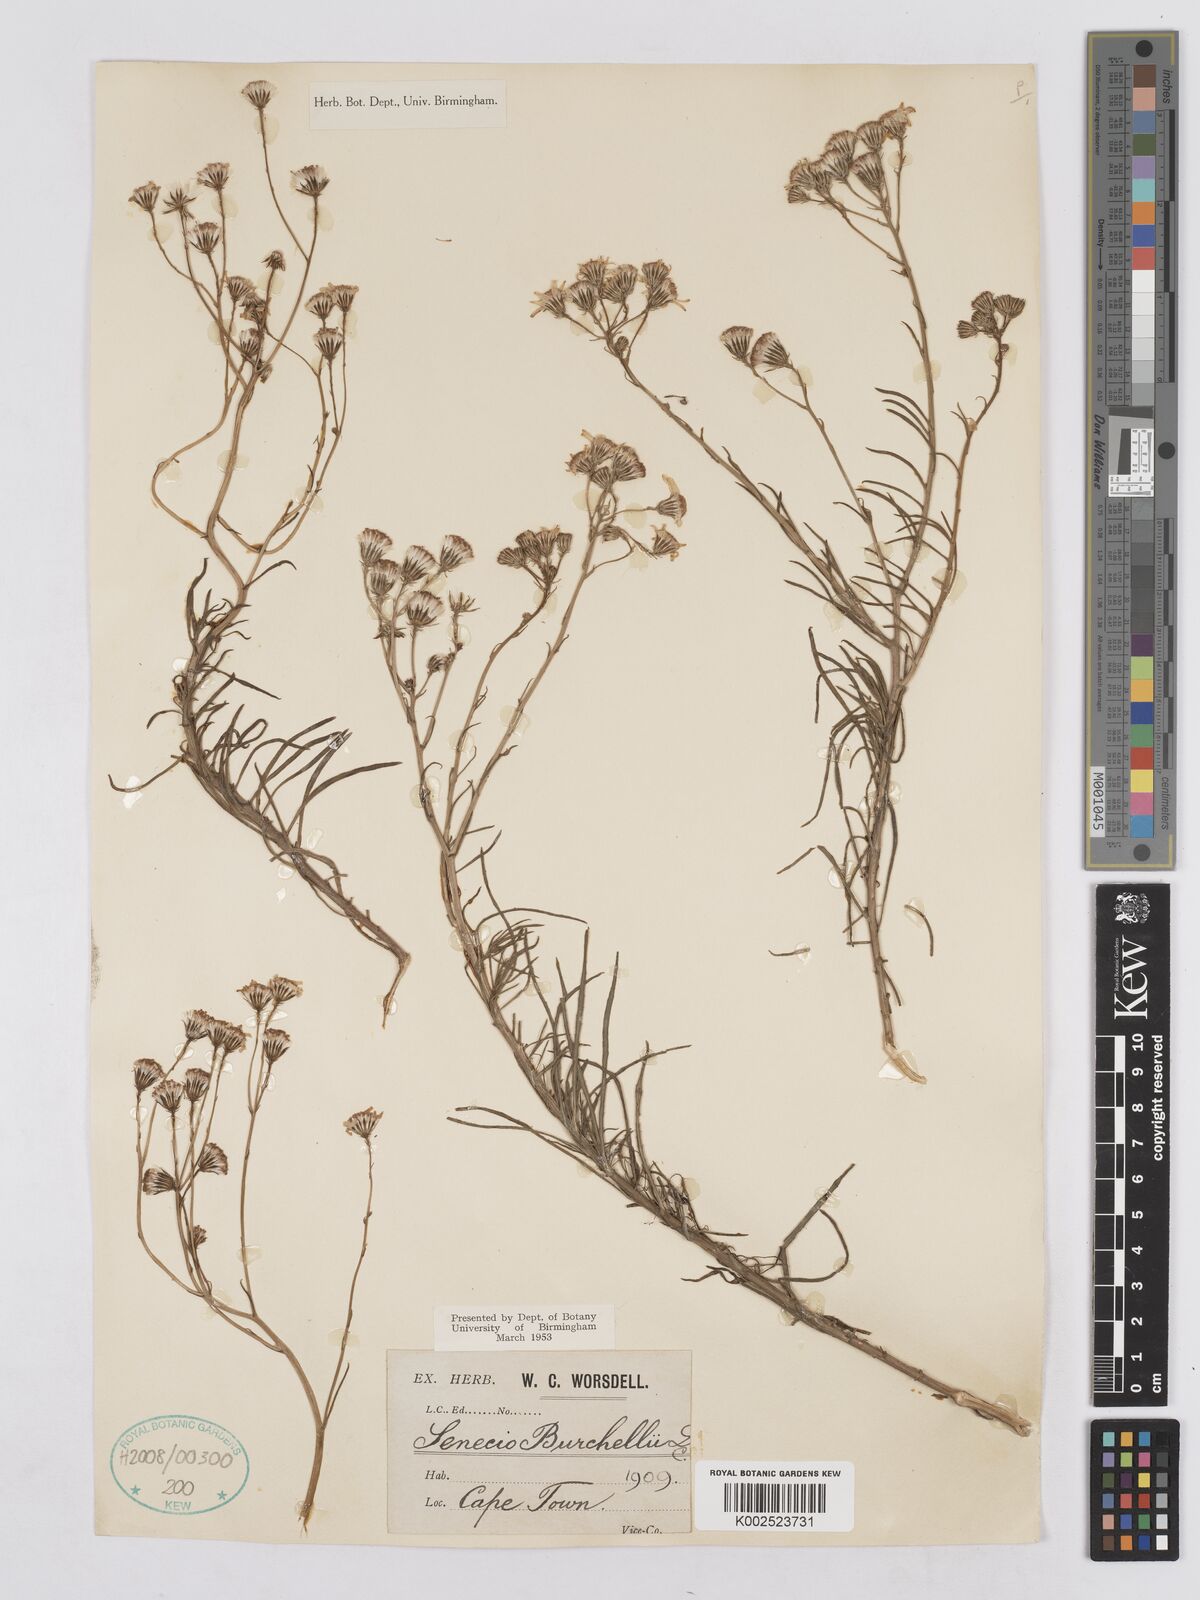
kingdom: Plantae
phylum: Tracheophyta
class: Magnoliopsida
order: Asterales
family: Asteraceae
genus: Senecio
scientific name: Senecio burchellii
